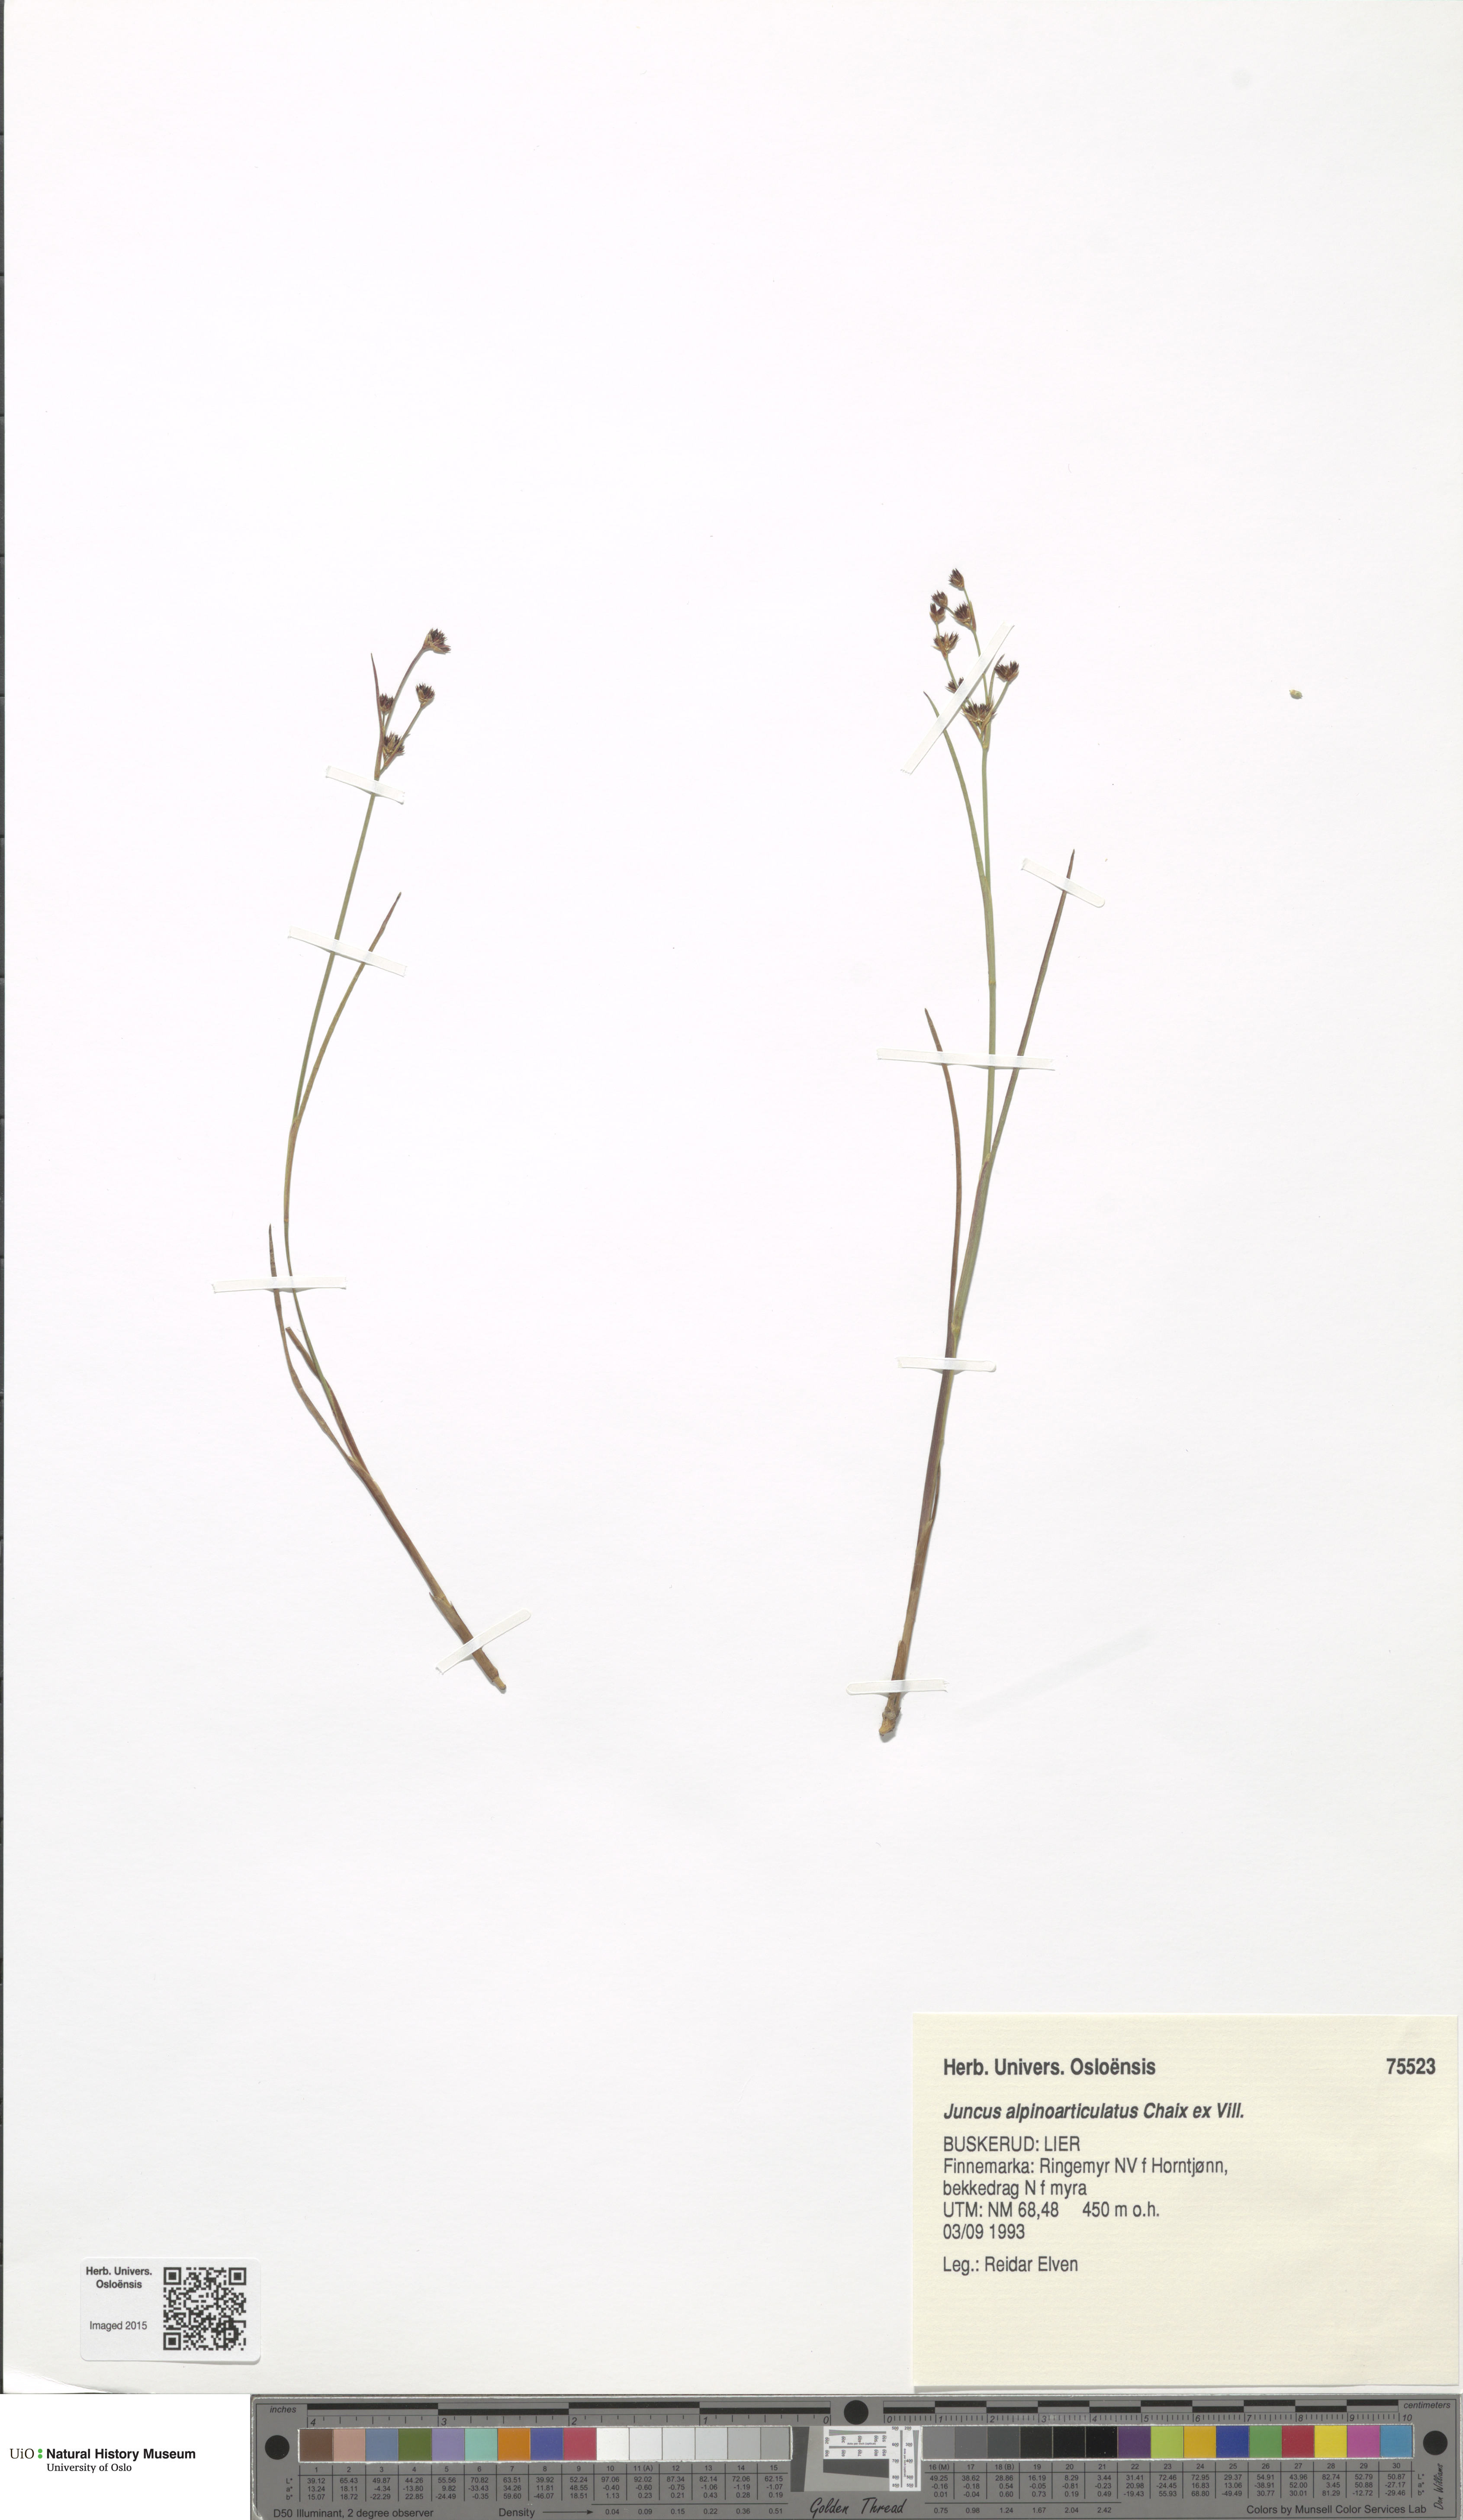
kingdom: Plantae
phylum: Tracheophyta
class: Liliopsida
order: Poales
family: Juncaceae
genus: Juncus
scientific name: Juncus alpinoarticulatus
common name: Alpine rush
